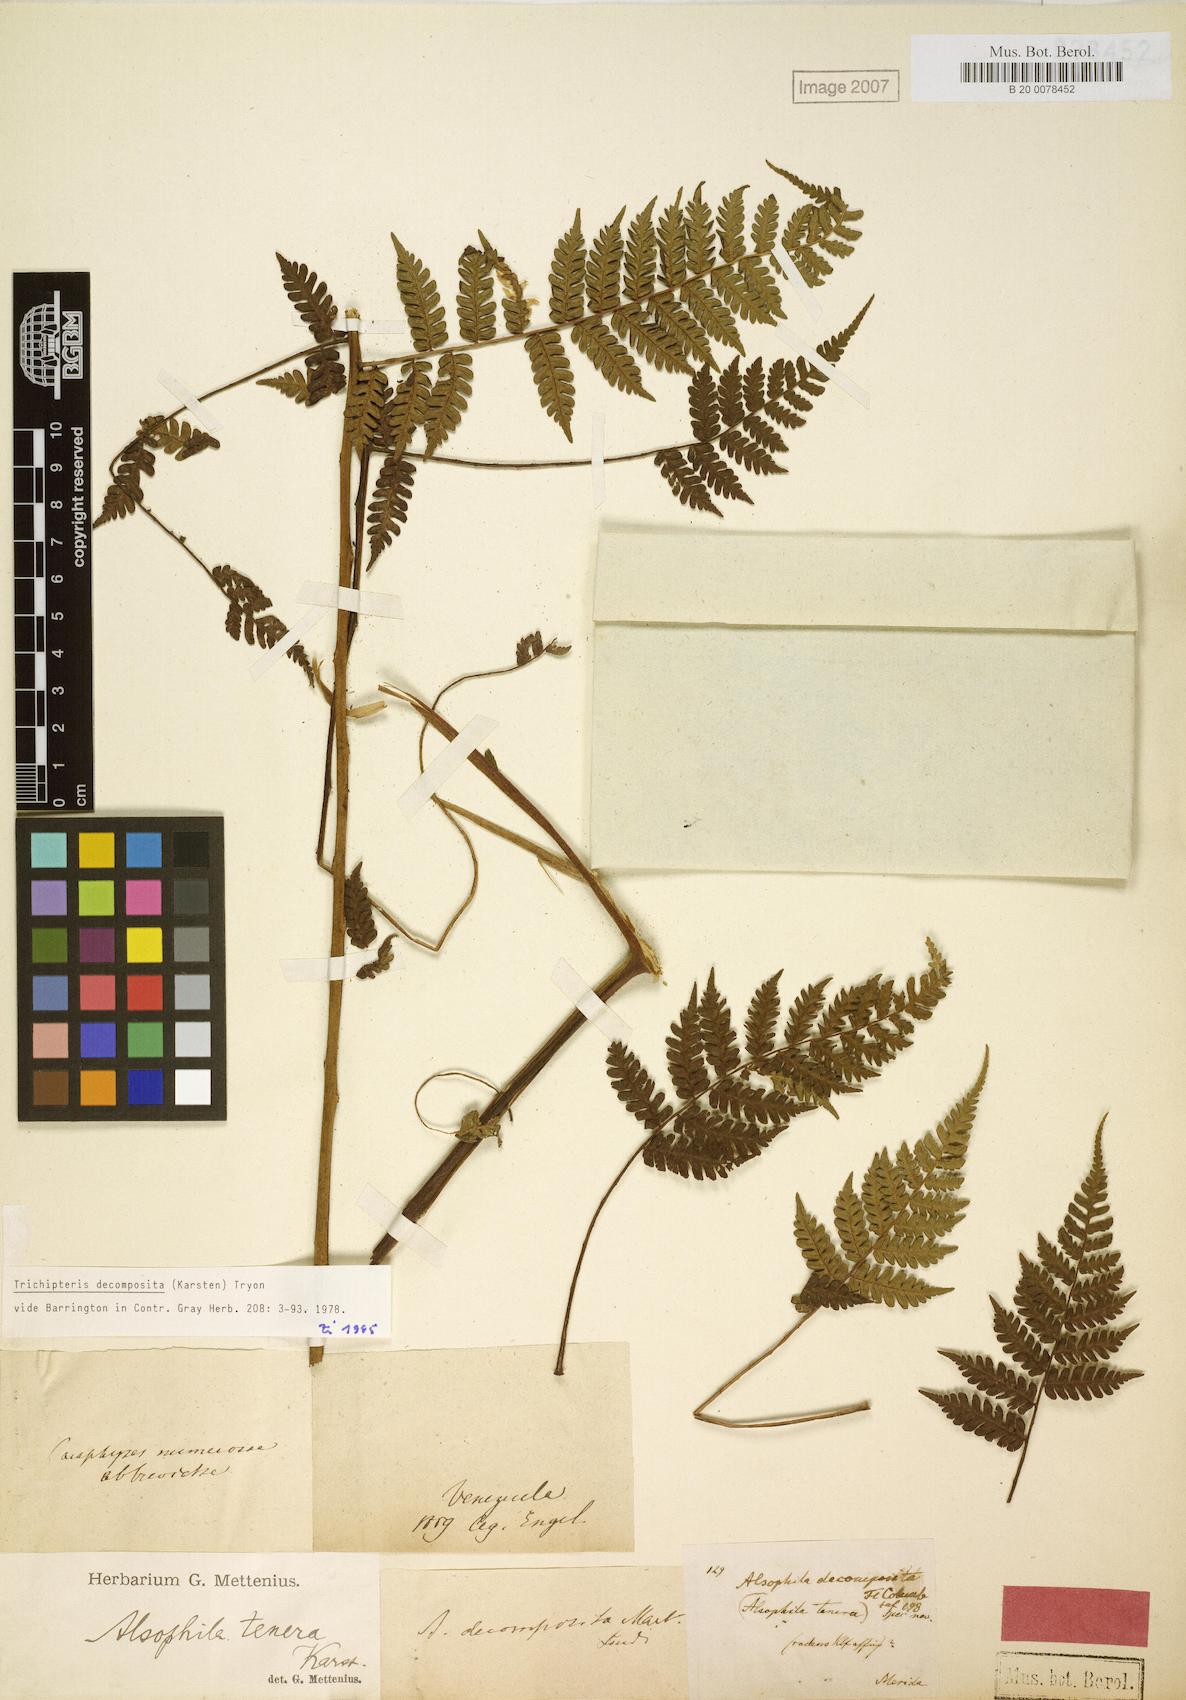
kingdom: Plantae
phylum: Tracheophyta
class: Polypodiopsida
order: Cyatheales
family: Cyatheaceae
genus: Cyathea
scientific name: Cyathea decomposita
